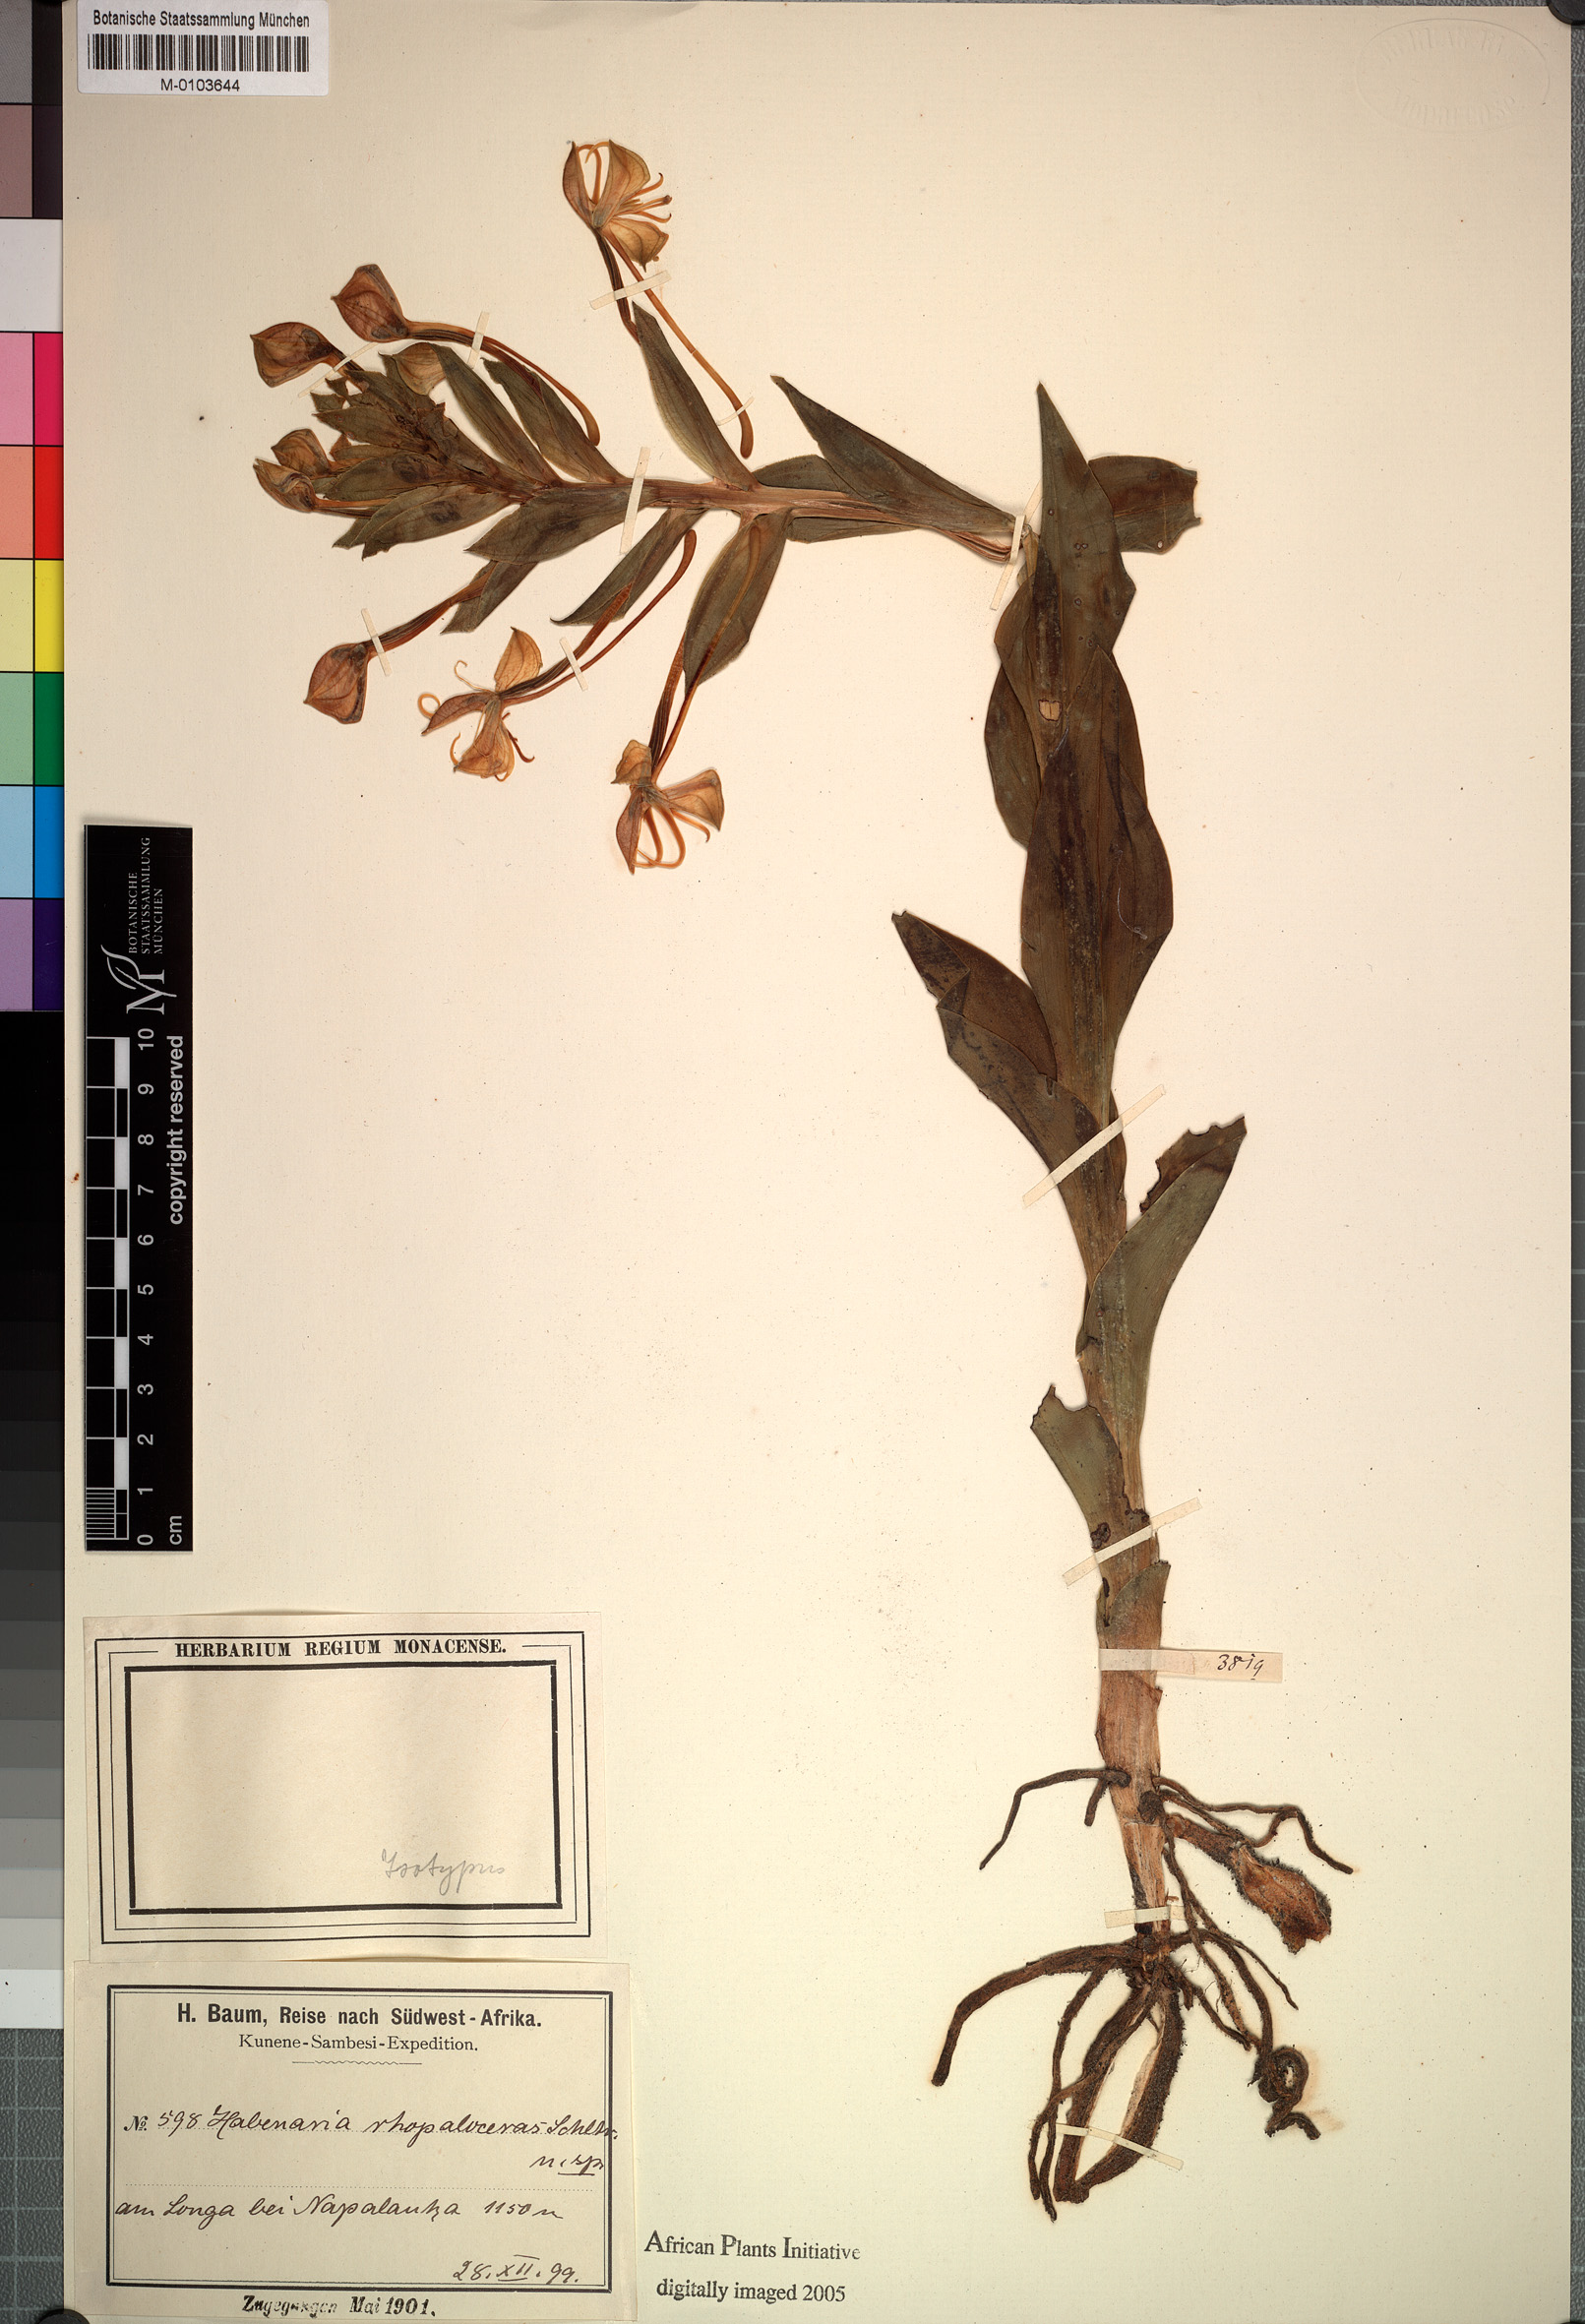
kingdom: Plantae
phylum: Tracheophyta
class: Liliopsida
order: Asparagales
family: Orchidaceae
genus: Habenaria
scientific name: Habenaria holubii
